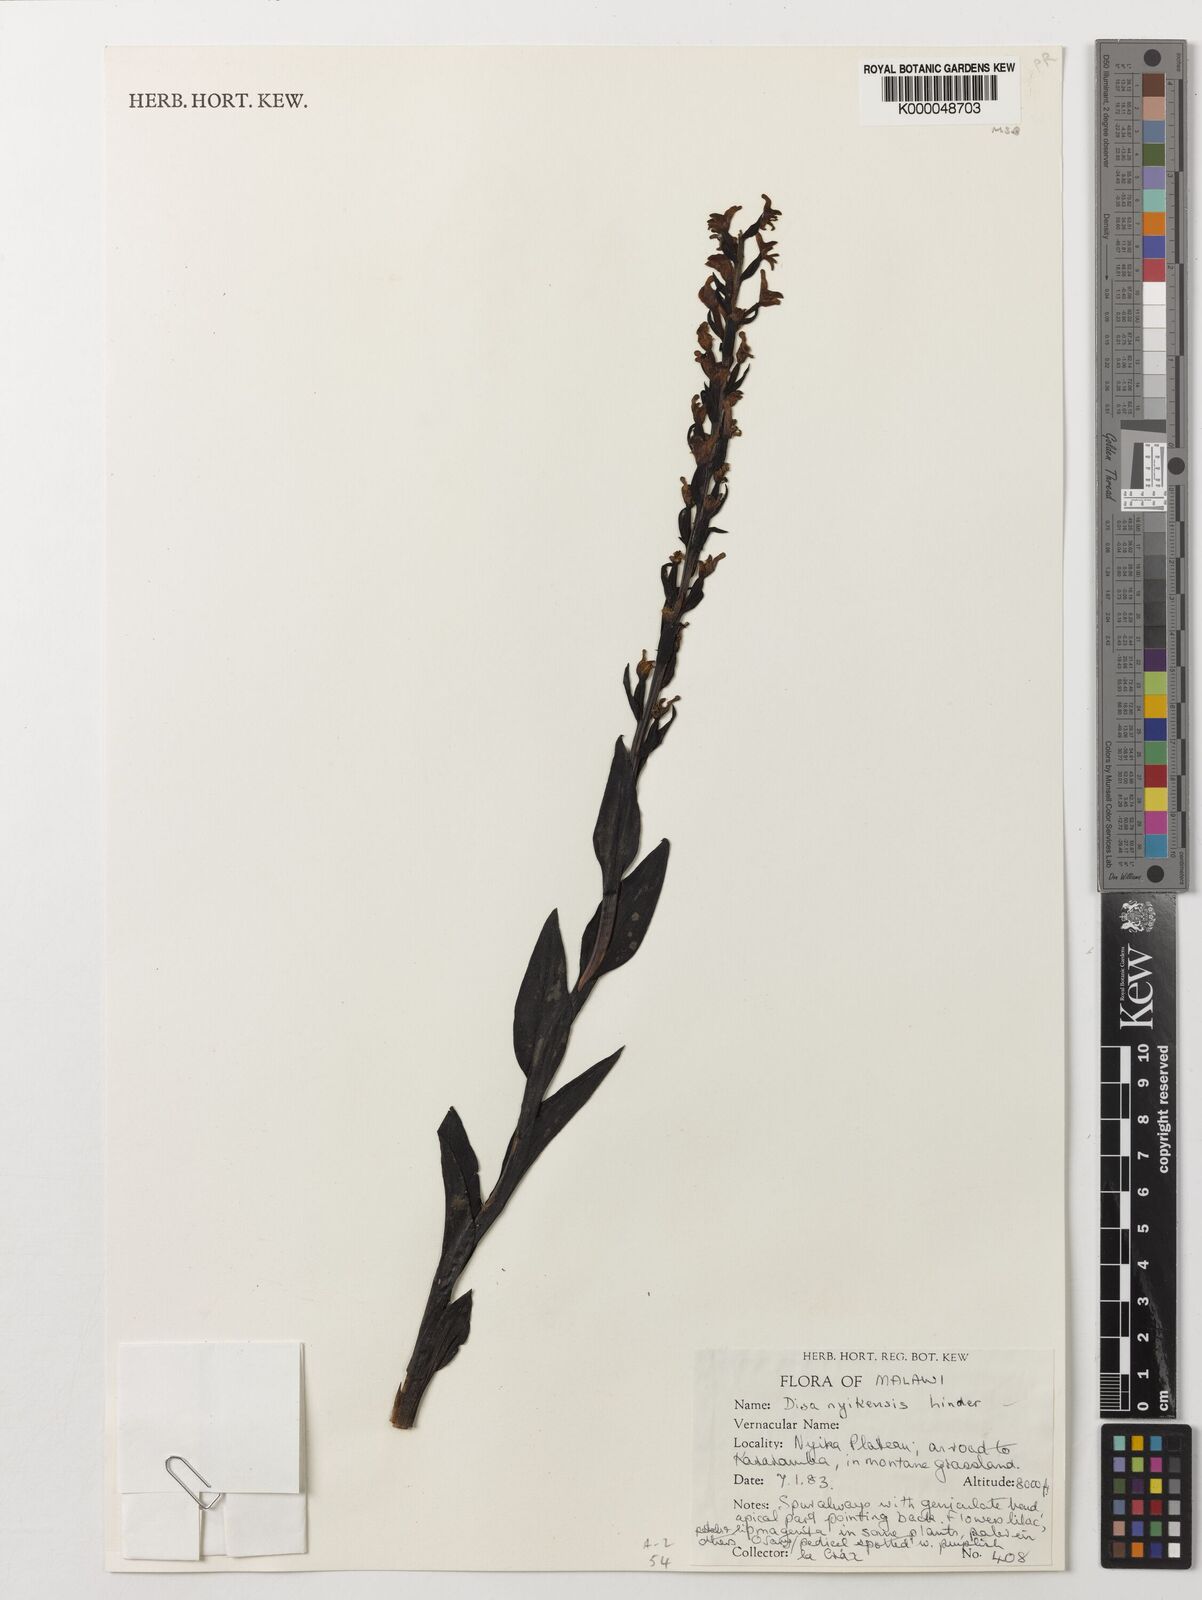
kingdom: Plantae
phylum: Tracheophyta
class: Liliopsida
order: Asparagales
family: Orchidaceae
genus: Disa
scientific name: Disa nyikensis
